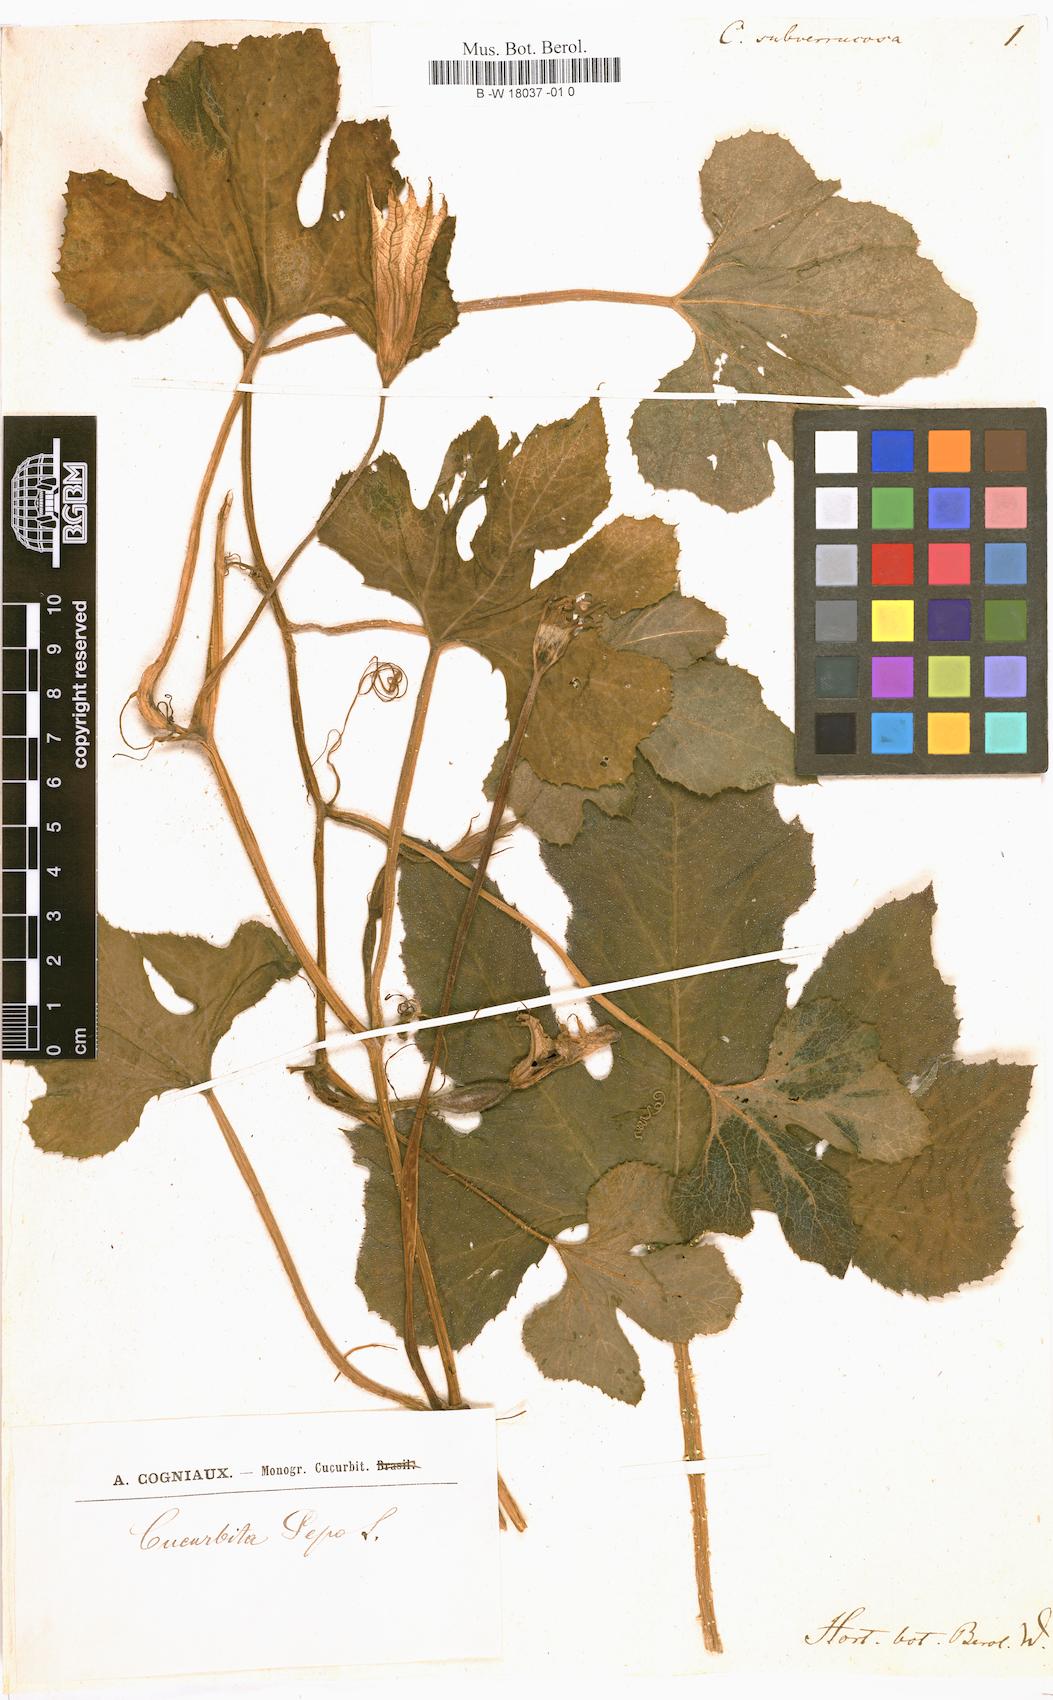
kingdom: Plantae
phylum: Tracheophyta
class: Magnoliopsida
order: Cucurbitales
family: Cucurbitaceae
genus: Cucurbita
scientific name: Cucurbita melopepo
